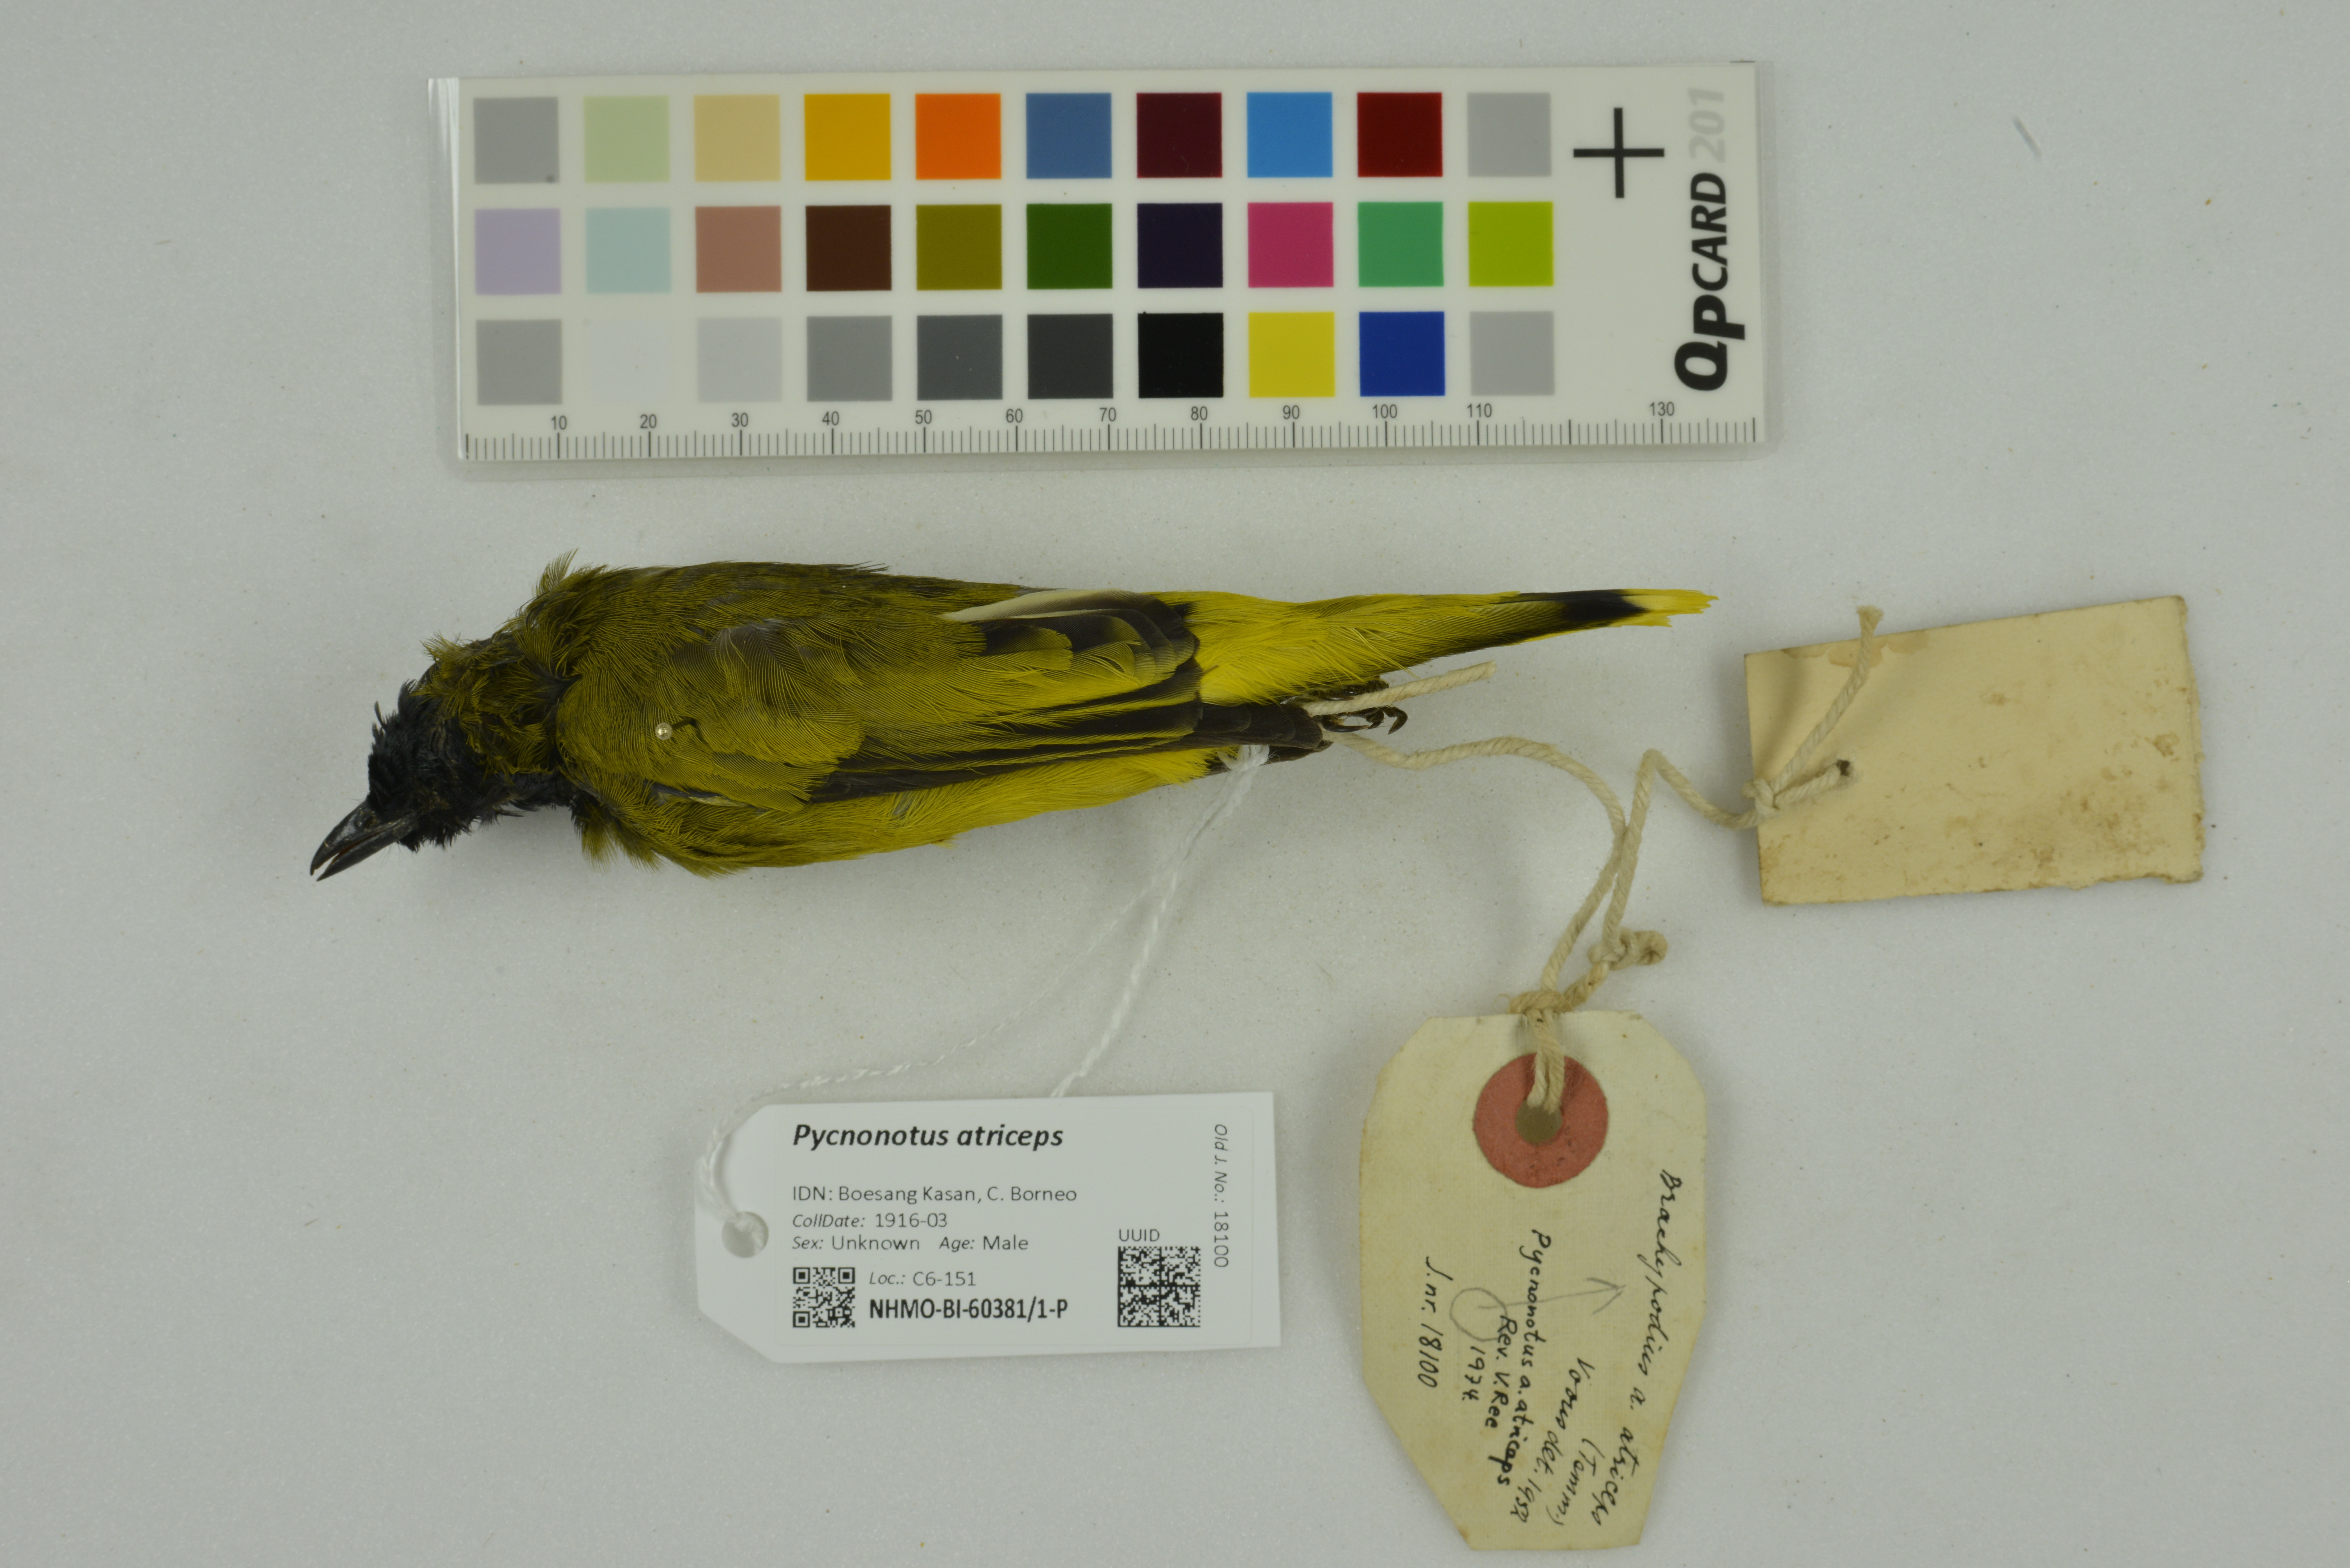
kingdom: Animalia
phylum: Chordata
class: Aves
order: Passeriformes
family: Pycnonotidae
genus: Brachypodius
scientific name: Brachypodius melanocephalos
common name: Black-headed bulbul
